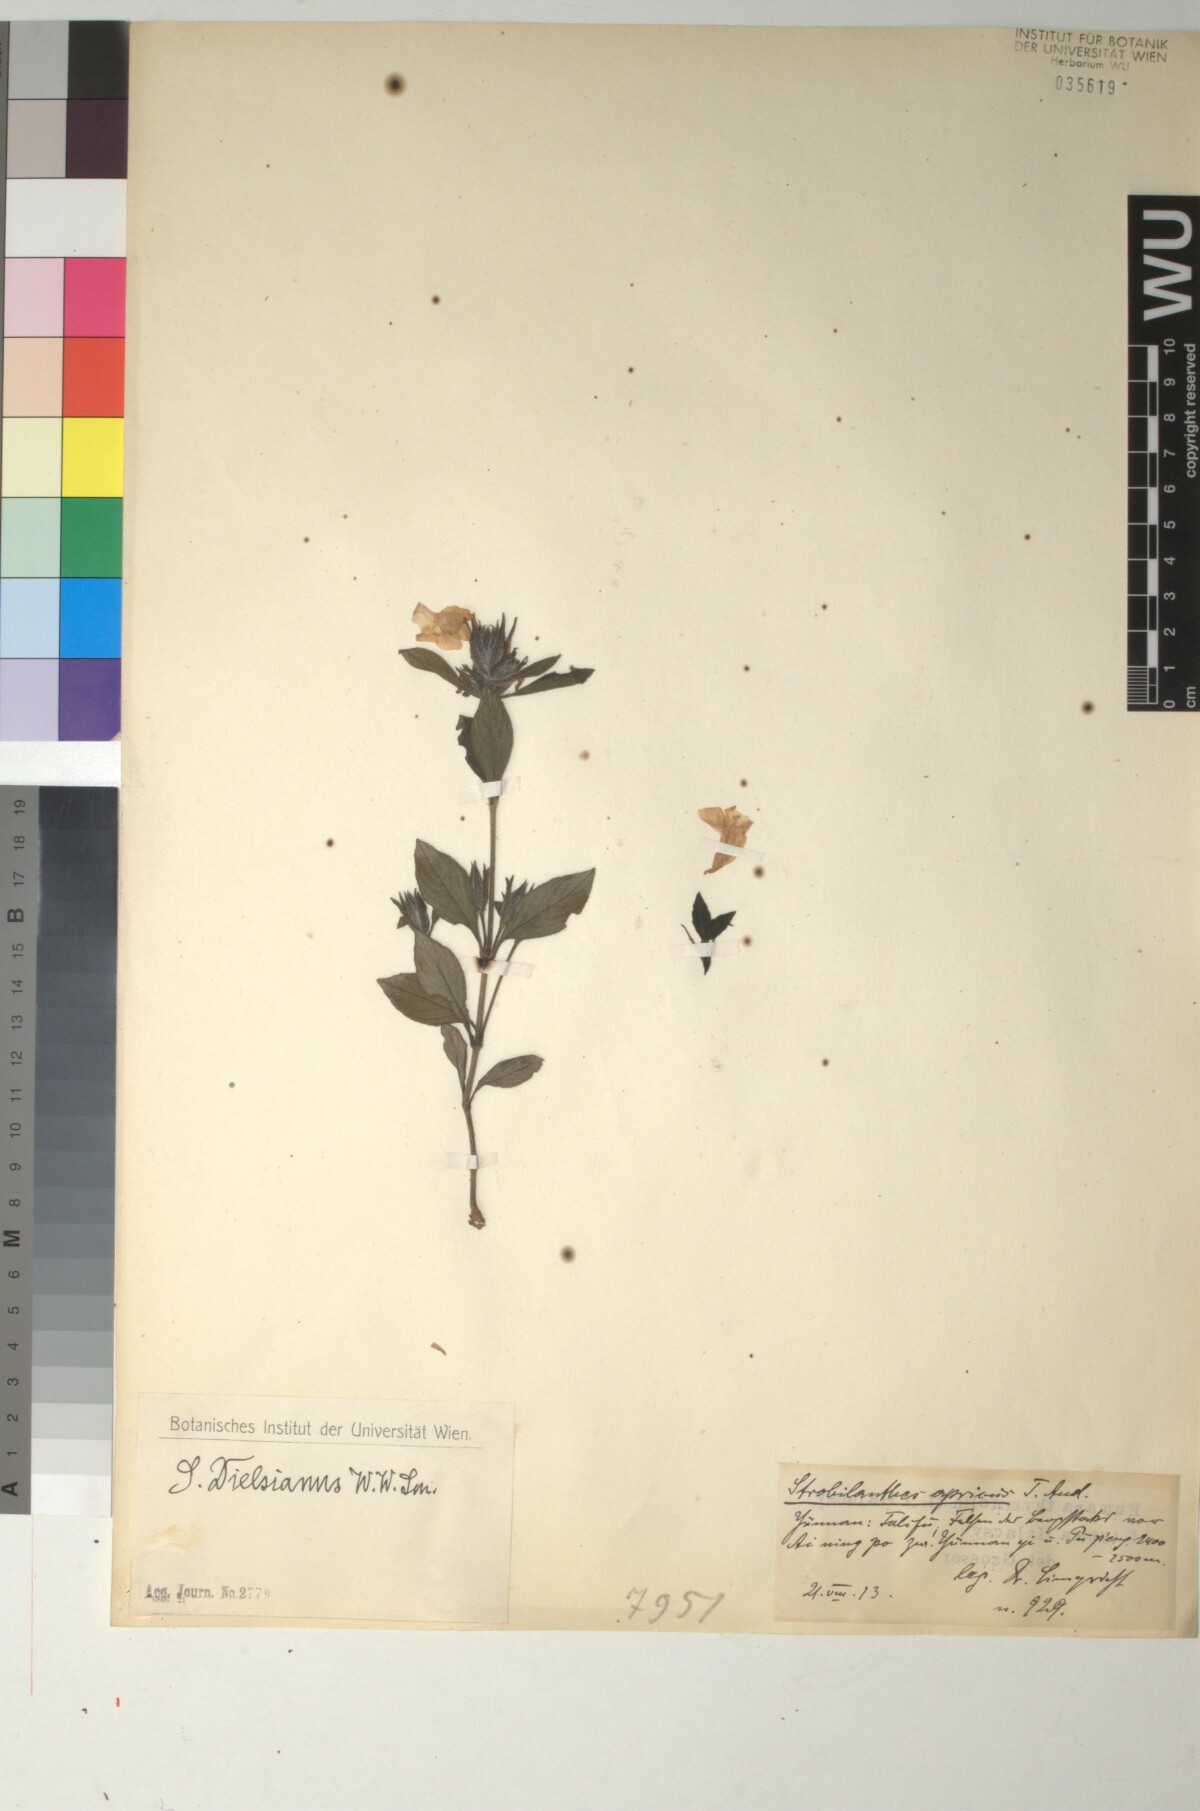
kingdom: Plantae
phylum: Tracheophyta
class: Magnoliopsida
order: Lamiales
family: Acanthaceae
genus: Strobilanthes
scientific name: Strobilanthes aprica
